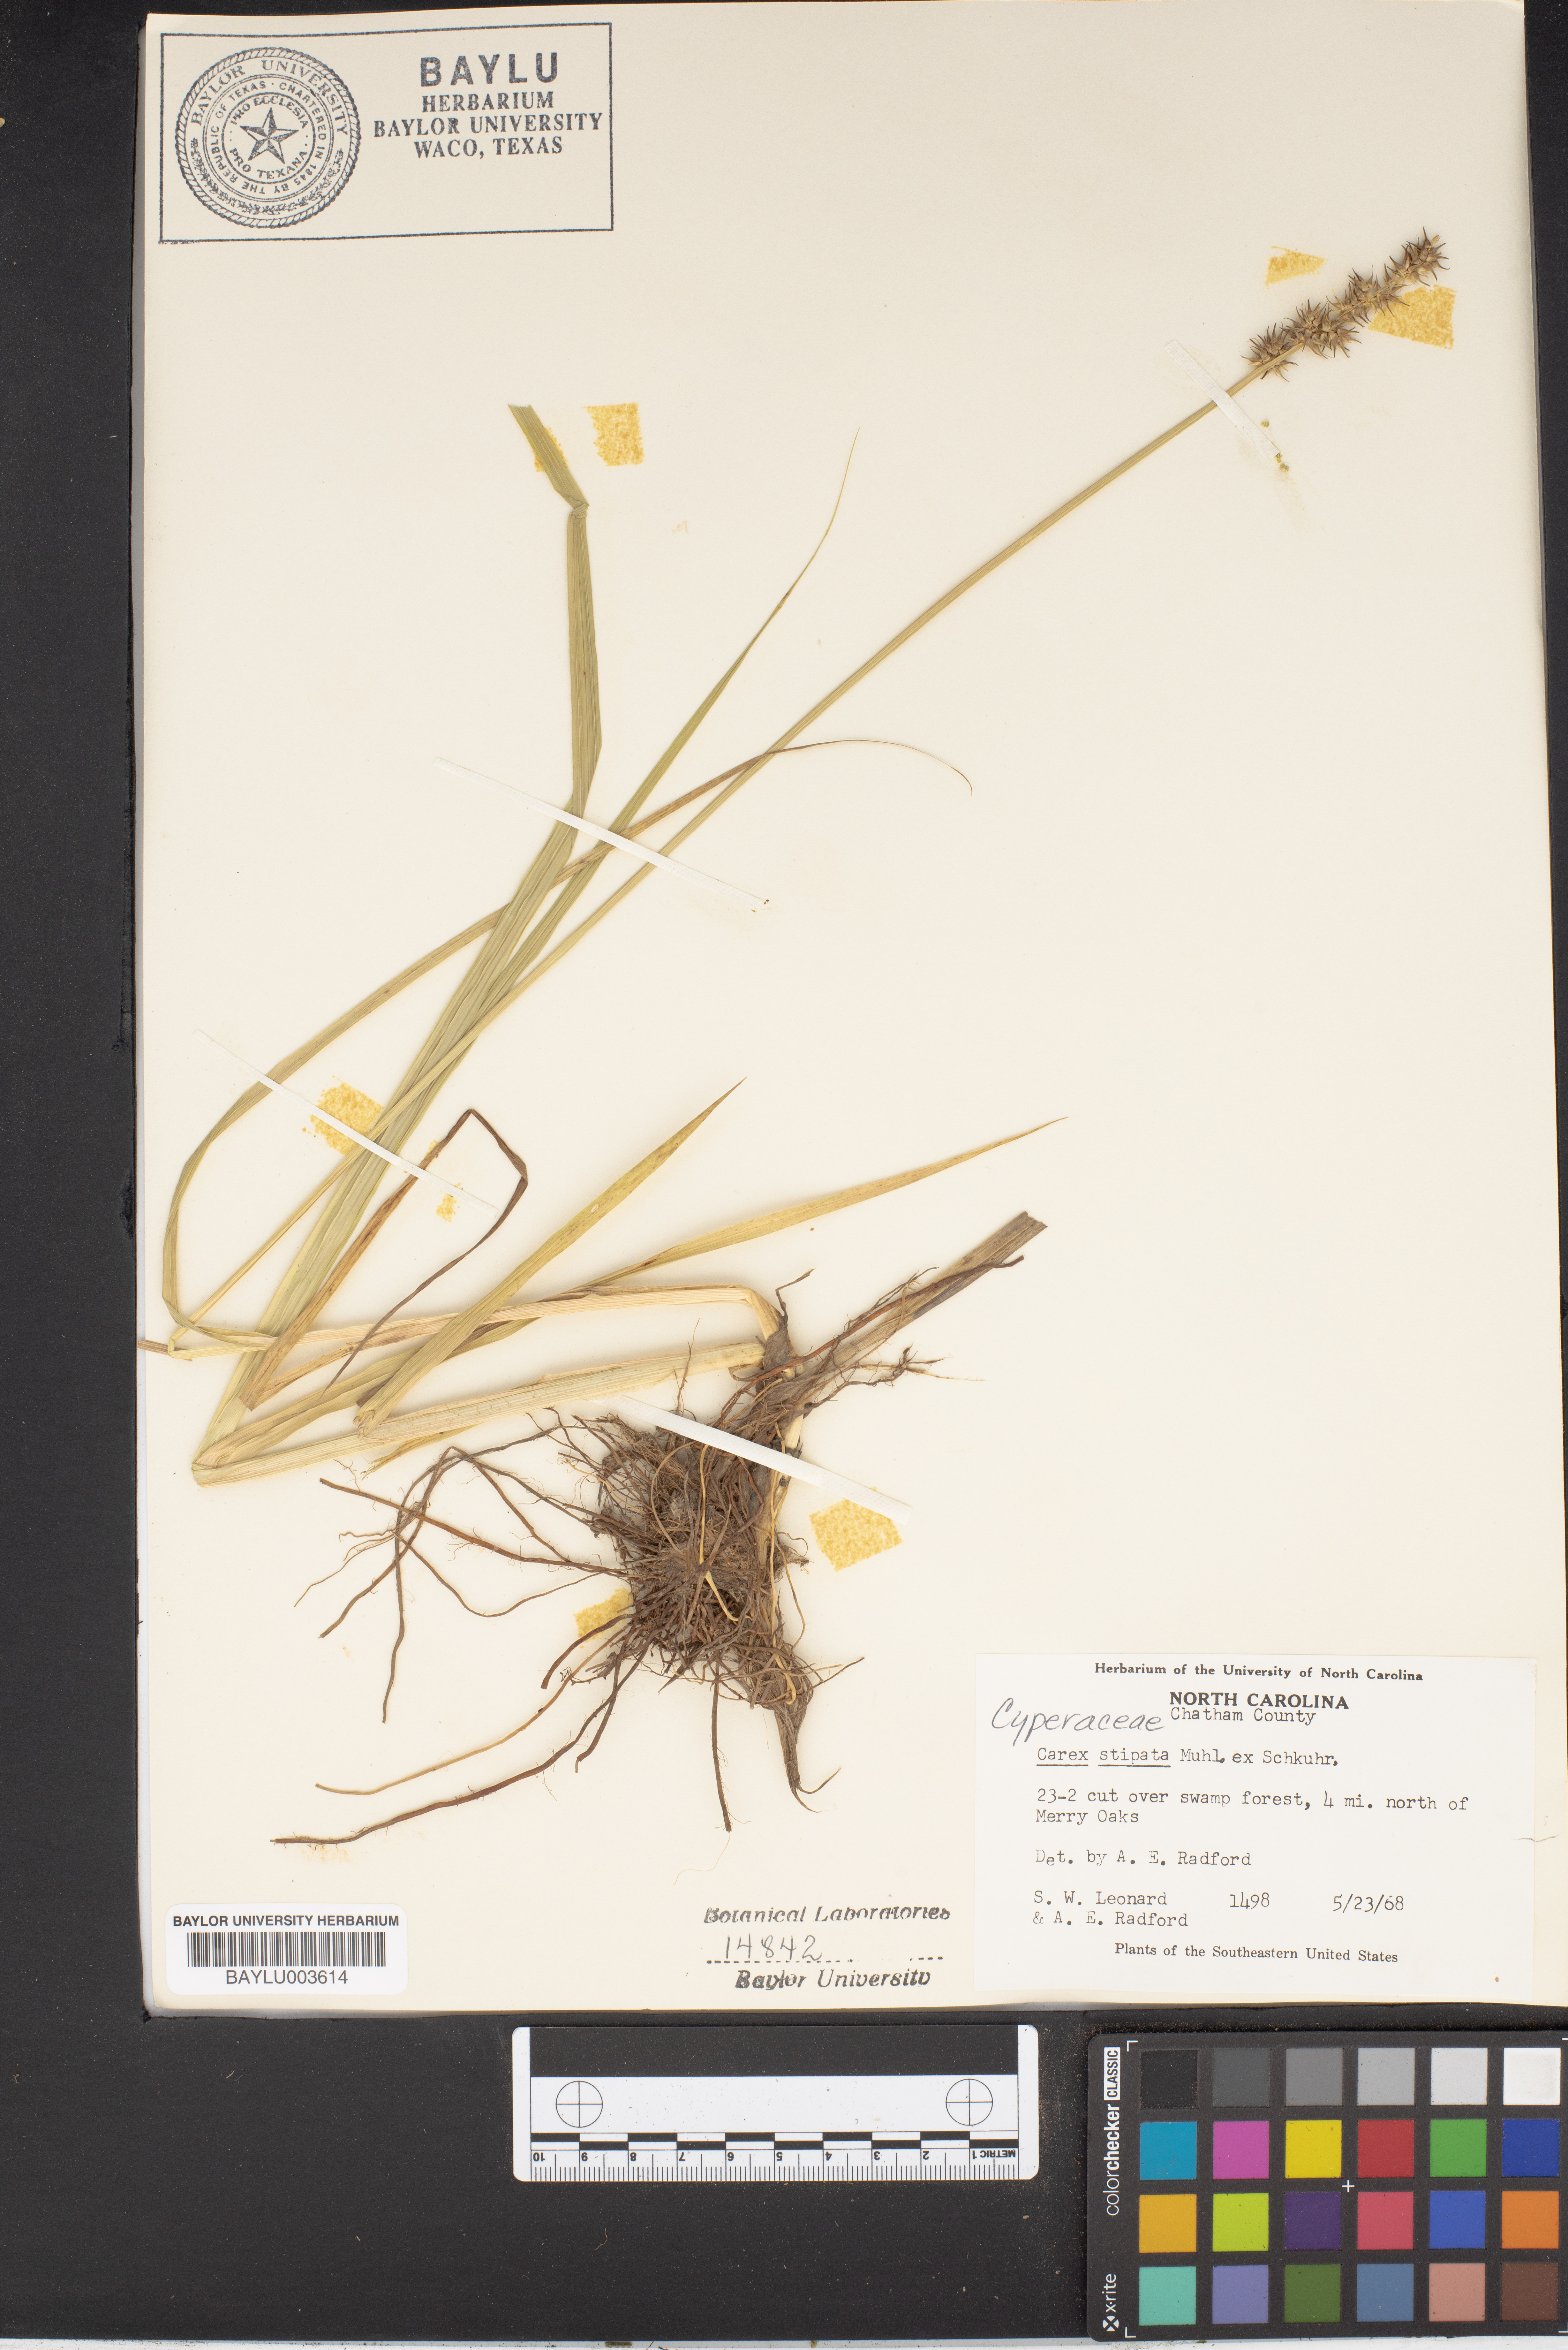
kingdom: Plantae
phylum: Tracheophyta
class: Liliopsida
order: Poales
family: Cyperaceae
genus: Carex
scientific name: Carex stipata
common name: Awl-fruited sedge
